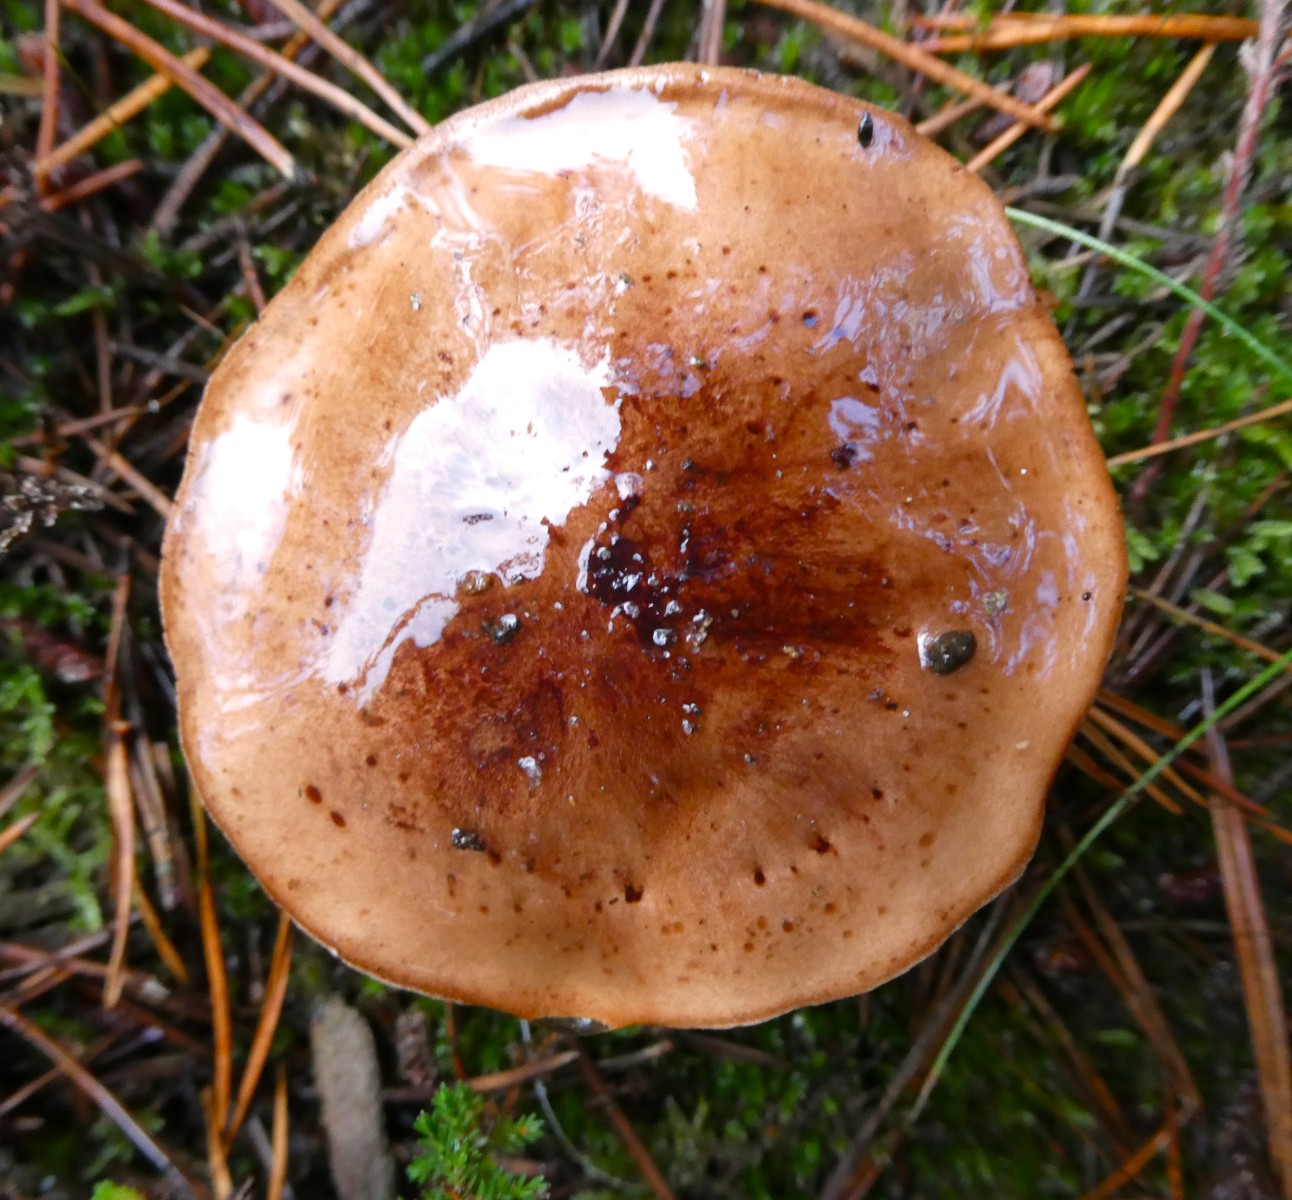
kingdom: Fungi
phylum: Basidiomycota
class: Agaricomycetes
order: Agaricales
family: Tricholomataceae
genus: Tricholoma
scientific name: Tricholoma pessundatum
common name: dråbeplettet ridderhat
